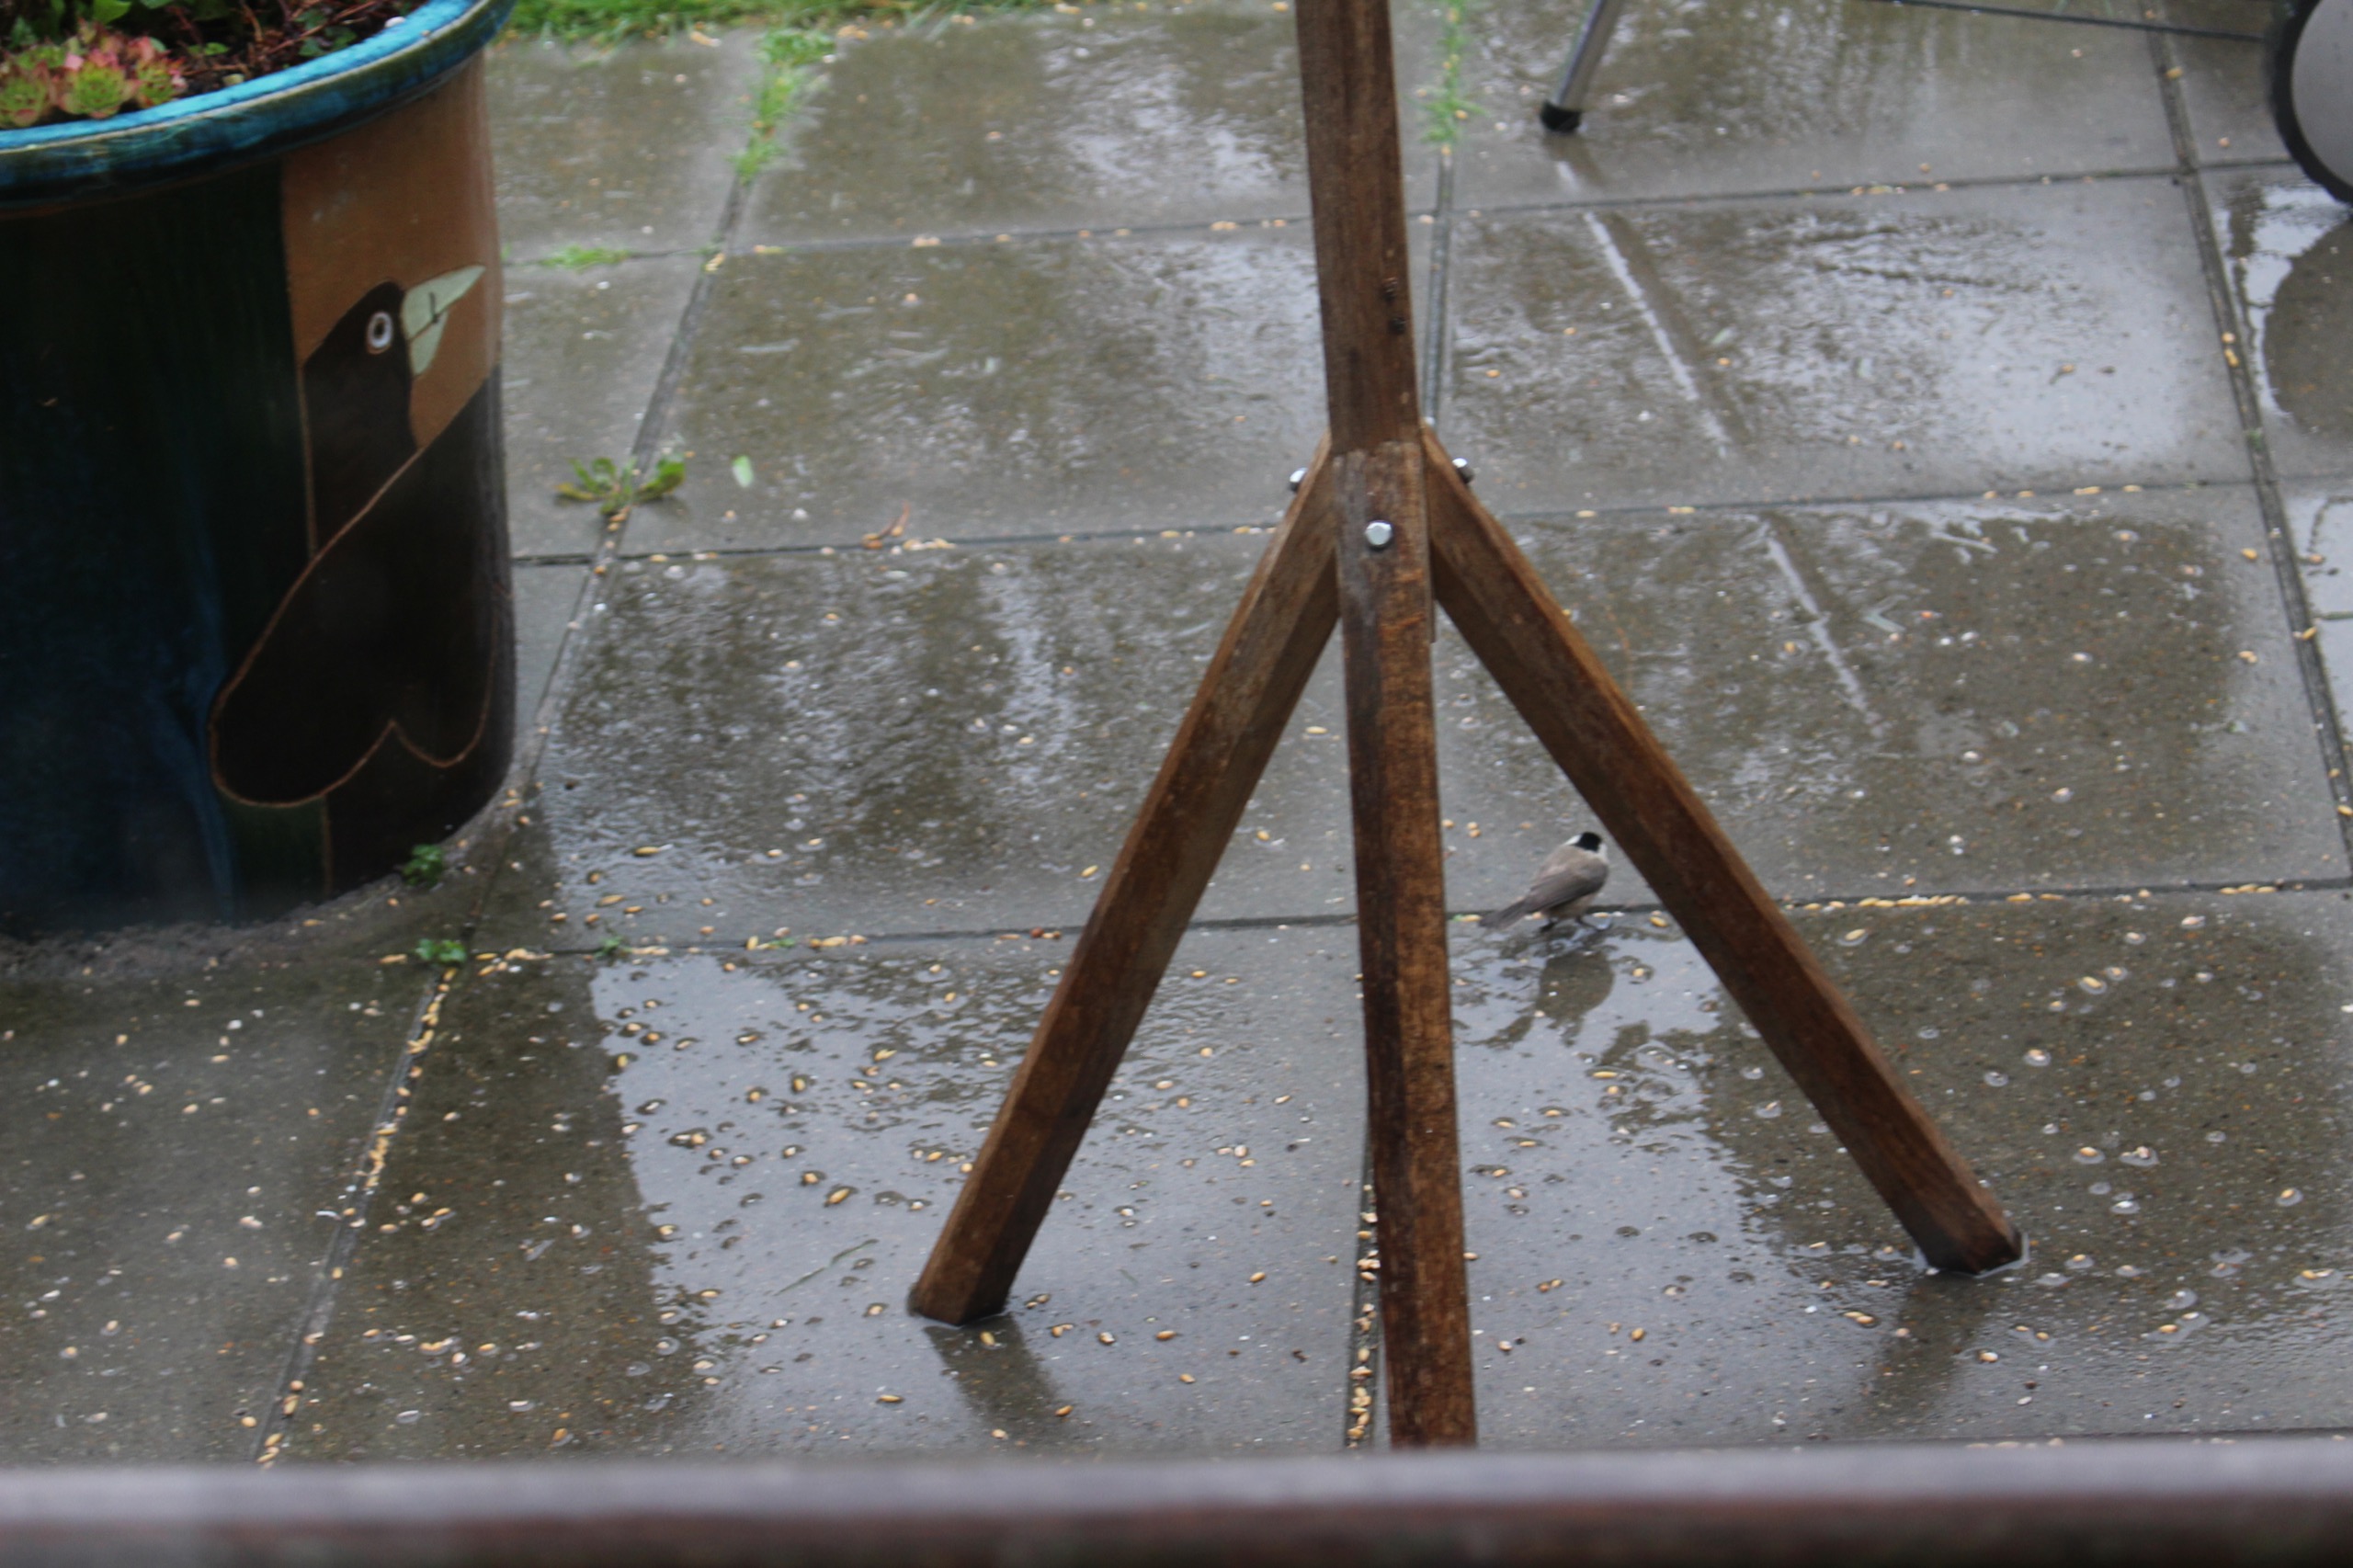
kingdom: Animalia
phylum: Chordata
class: Aves
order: Passeriformes
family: Paridae
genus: Poecile
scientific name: Poecile palustris
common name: Sumpmejse
